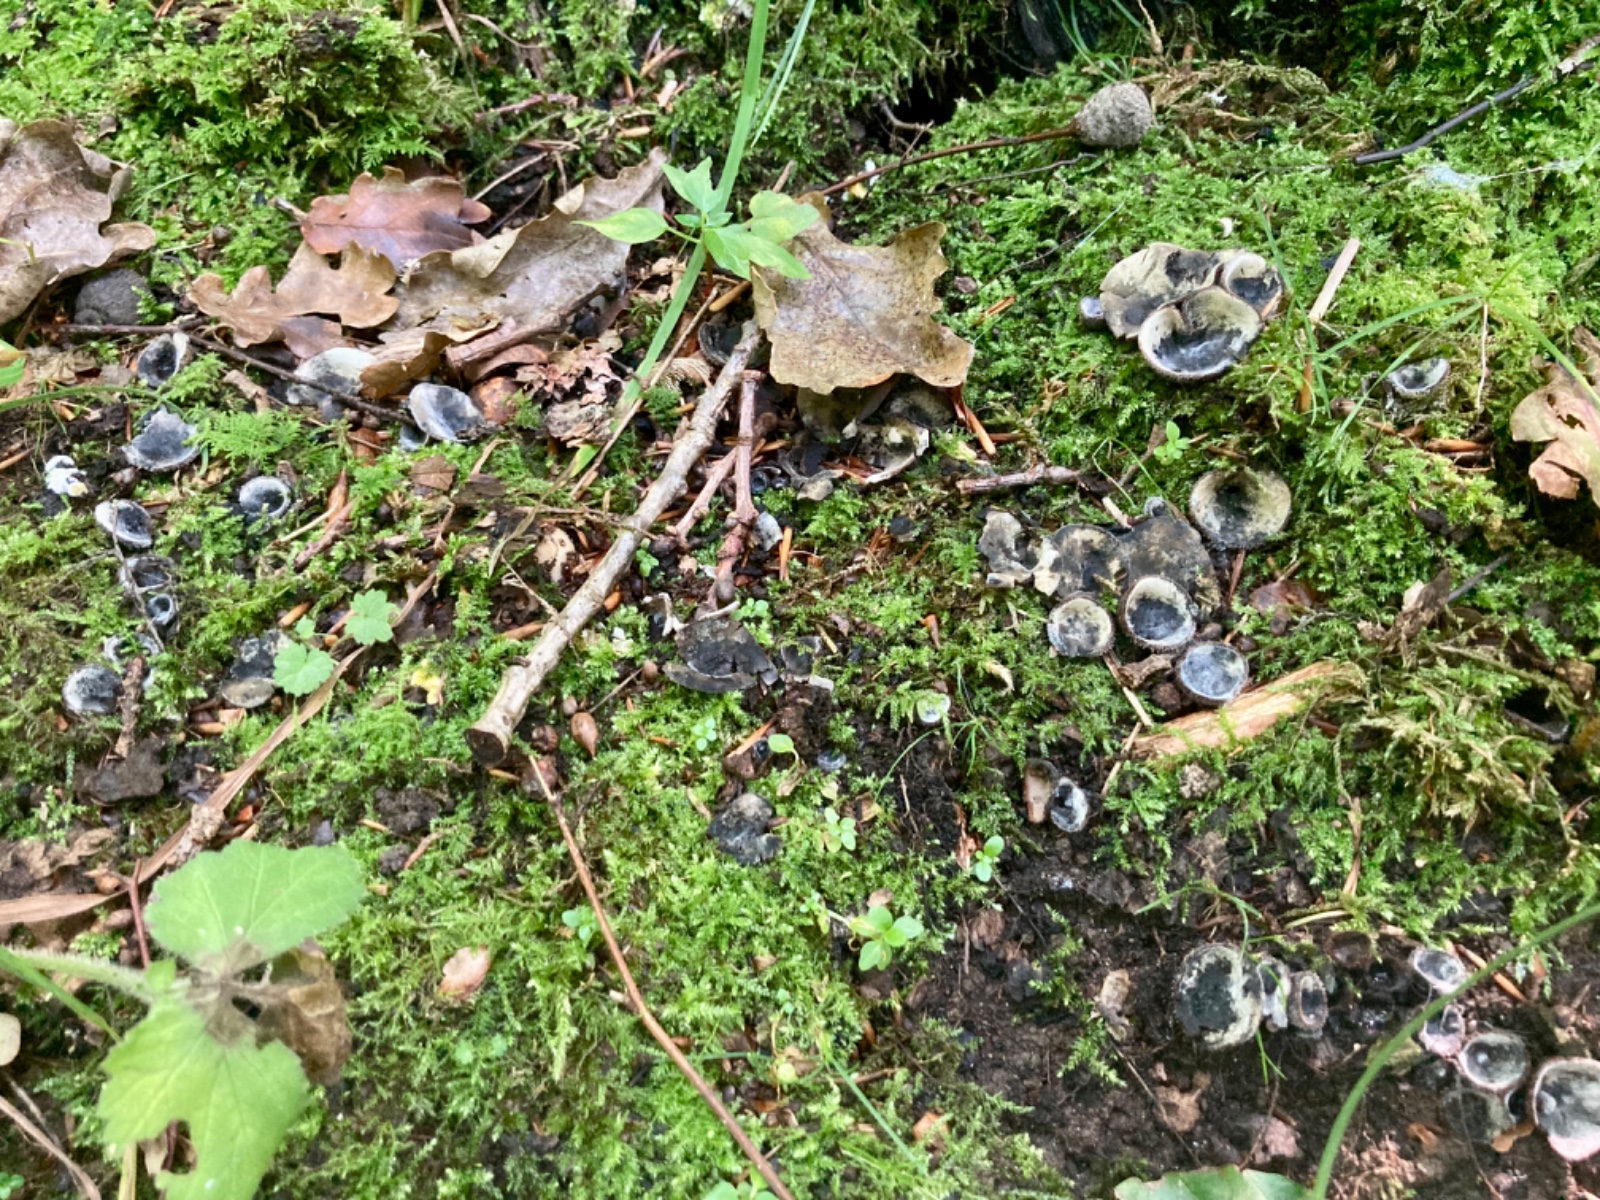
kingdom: Fungi
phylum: Ascomycota
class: Pezizomycetes
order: Pezizales
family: Pyronemataceae
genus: Humaria
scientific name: Humaria hemisphaerica
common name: halvkugleformet børstebæger
